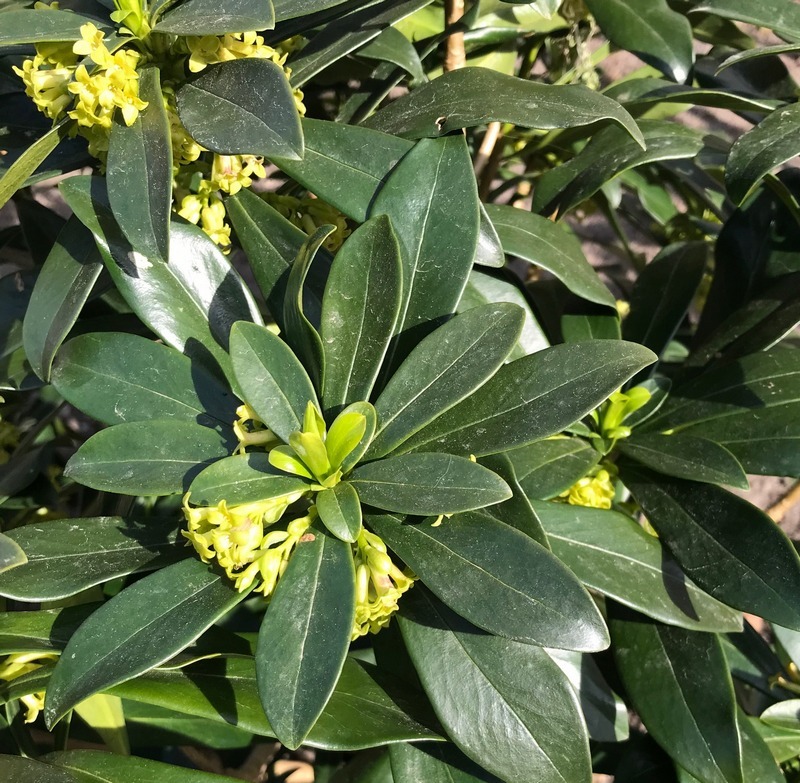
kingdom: Plantae
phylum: Tracheophyta
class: Magnoliopsida
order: Malvales
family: Thymelaeaceae
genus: Daphne
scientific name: Daphne laureola
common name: Laurbær-dafne
